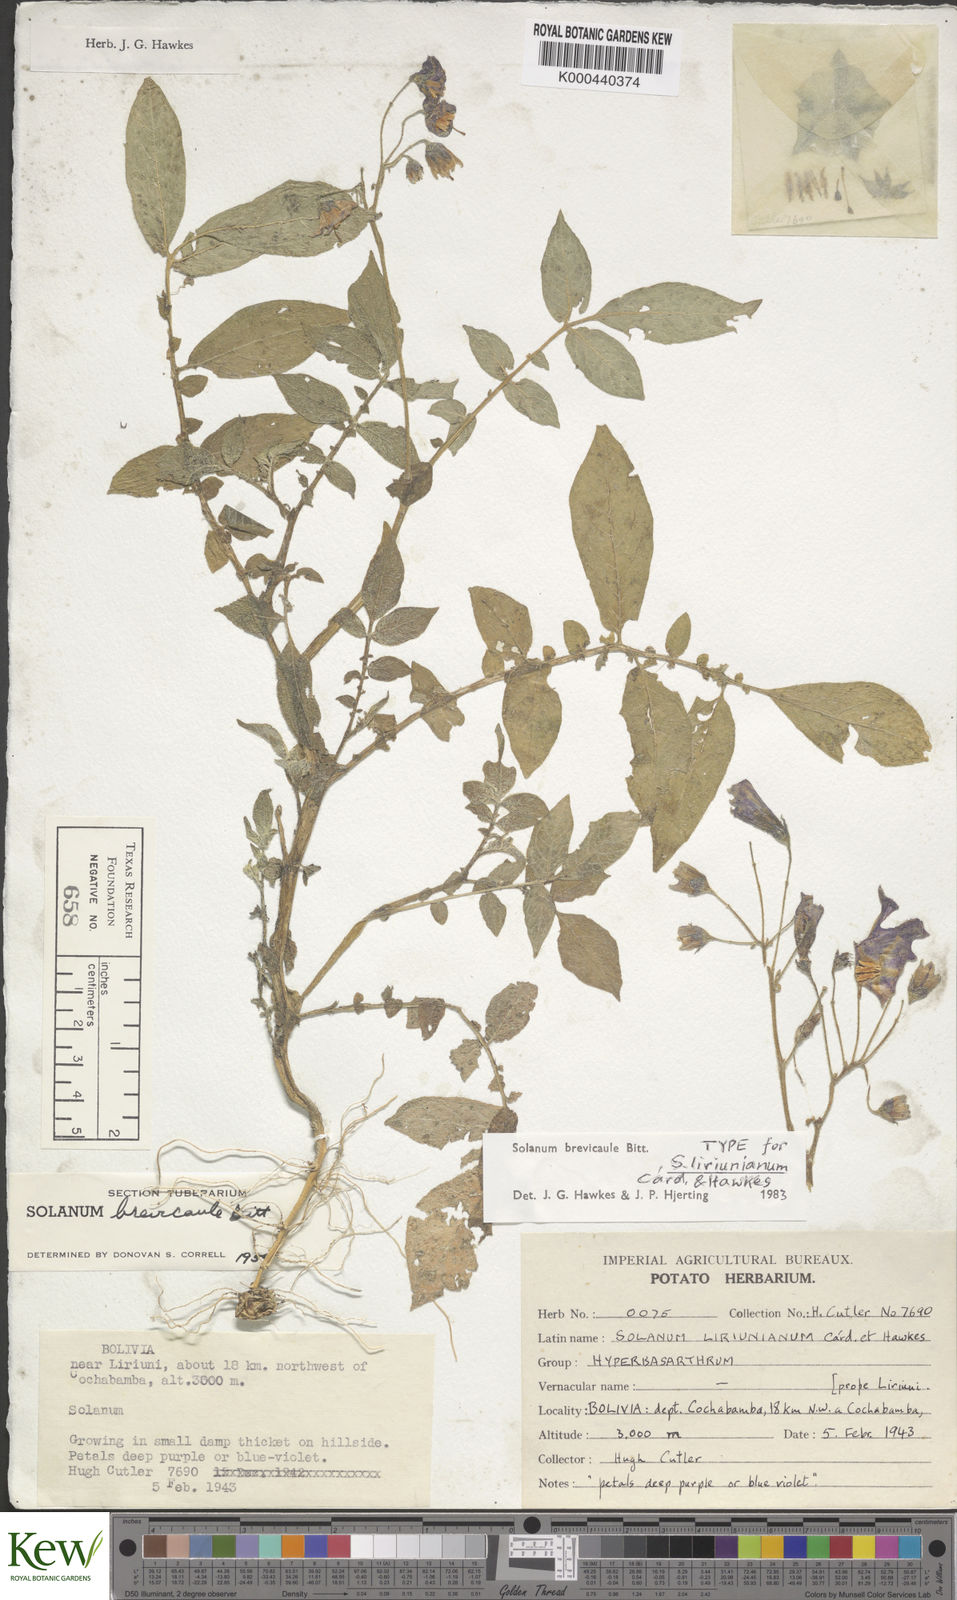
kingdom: Plantae
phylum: Tracheophyta
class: Magnoliopsida
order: Solanales
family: Solanaceae
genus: Solanum
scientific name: Solanum brevicaule
